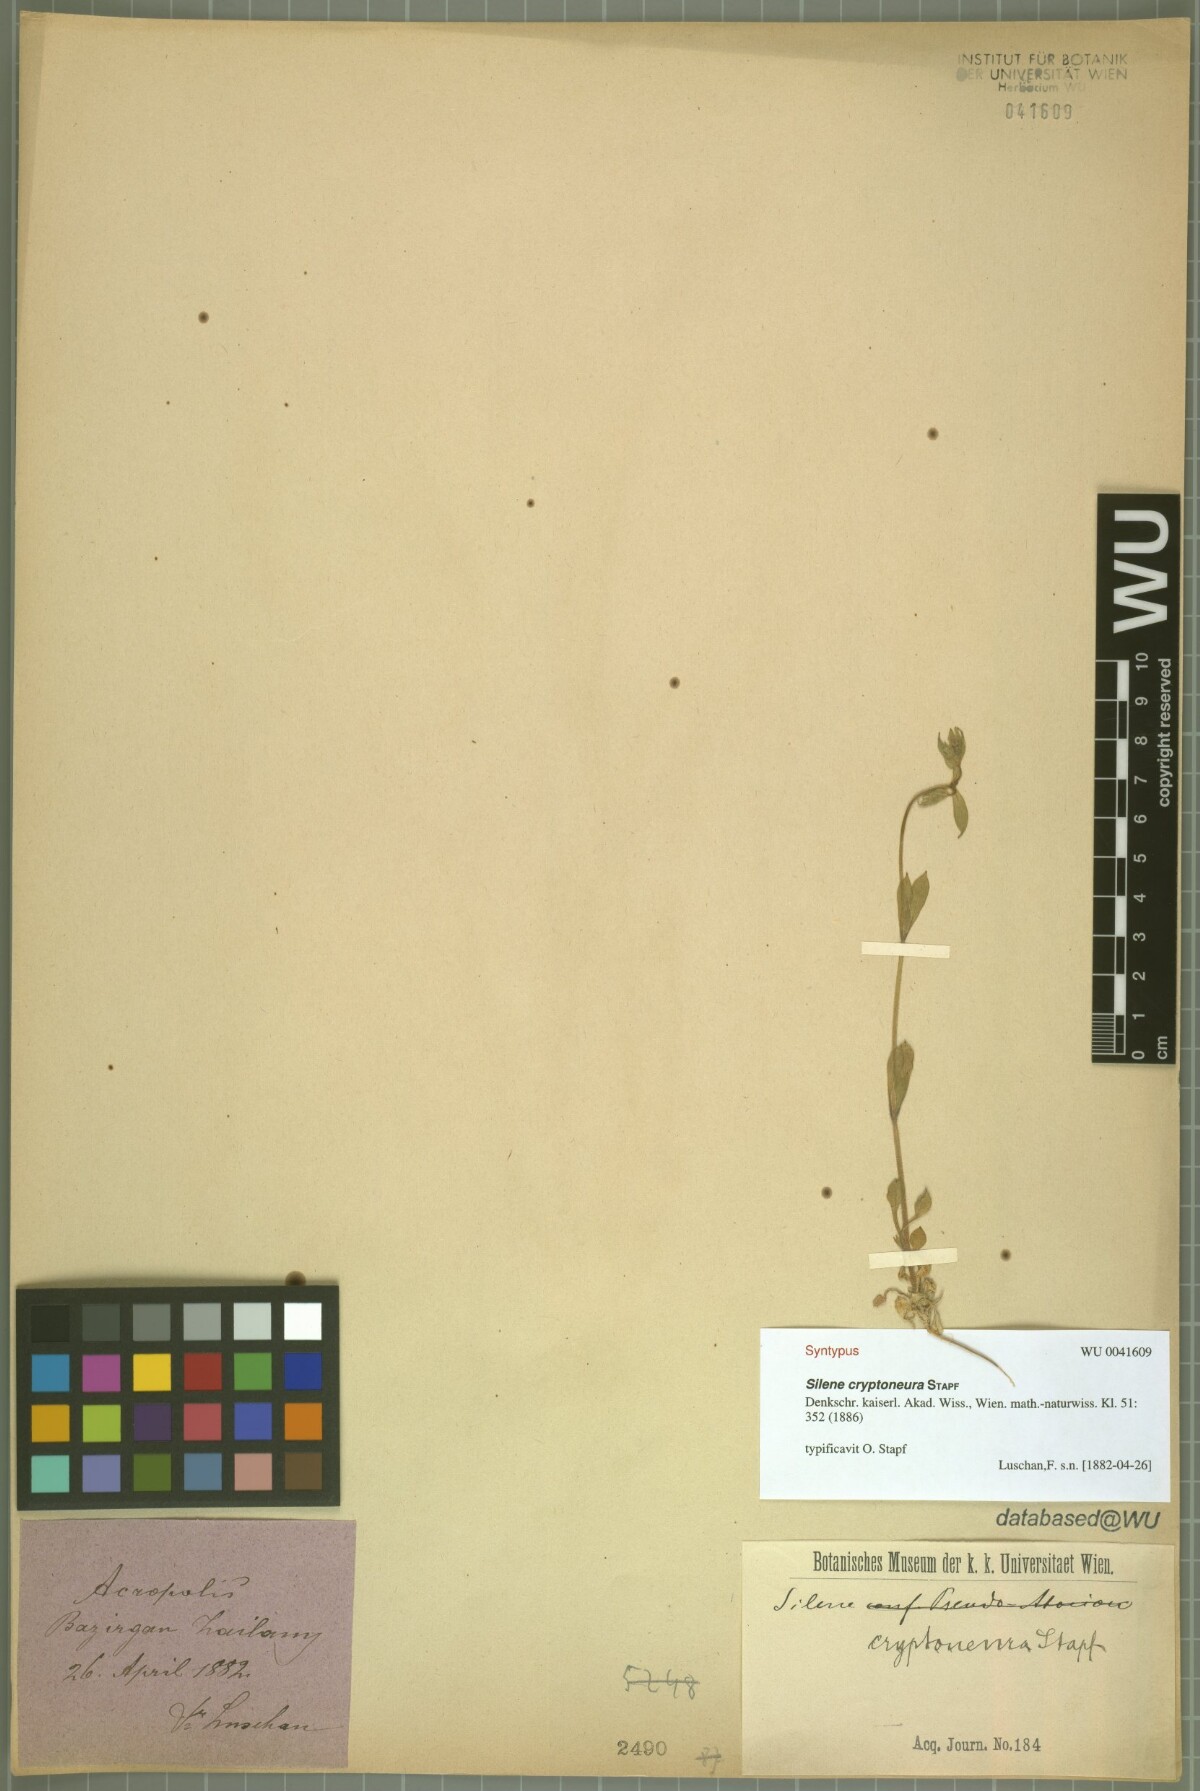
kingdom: Plantae
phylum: Tracheophyta
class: Magnoliopsida
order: Caryophyllales
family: Caryophyllaceae
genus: Silene
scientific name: Silene cryptoneura
